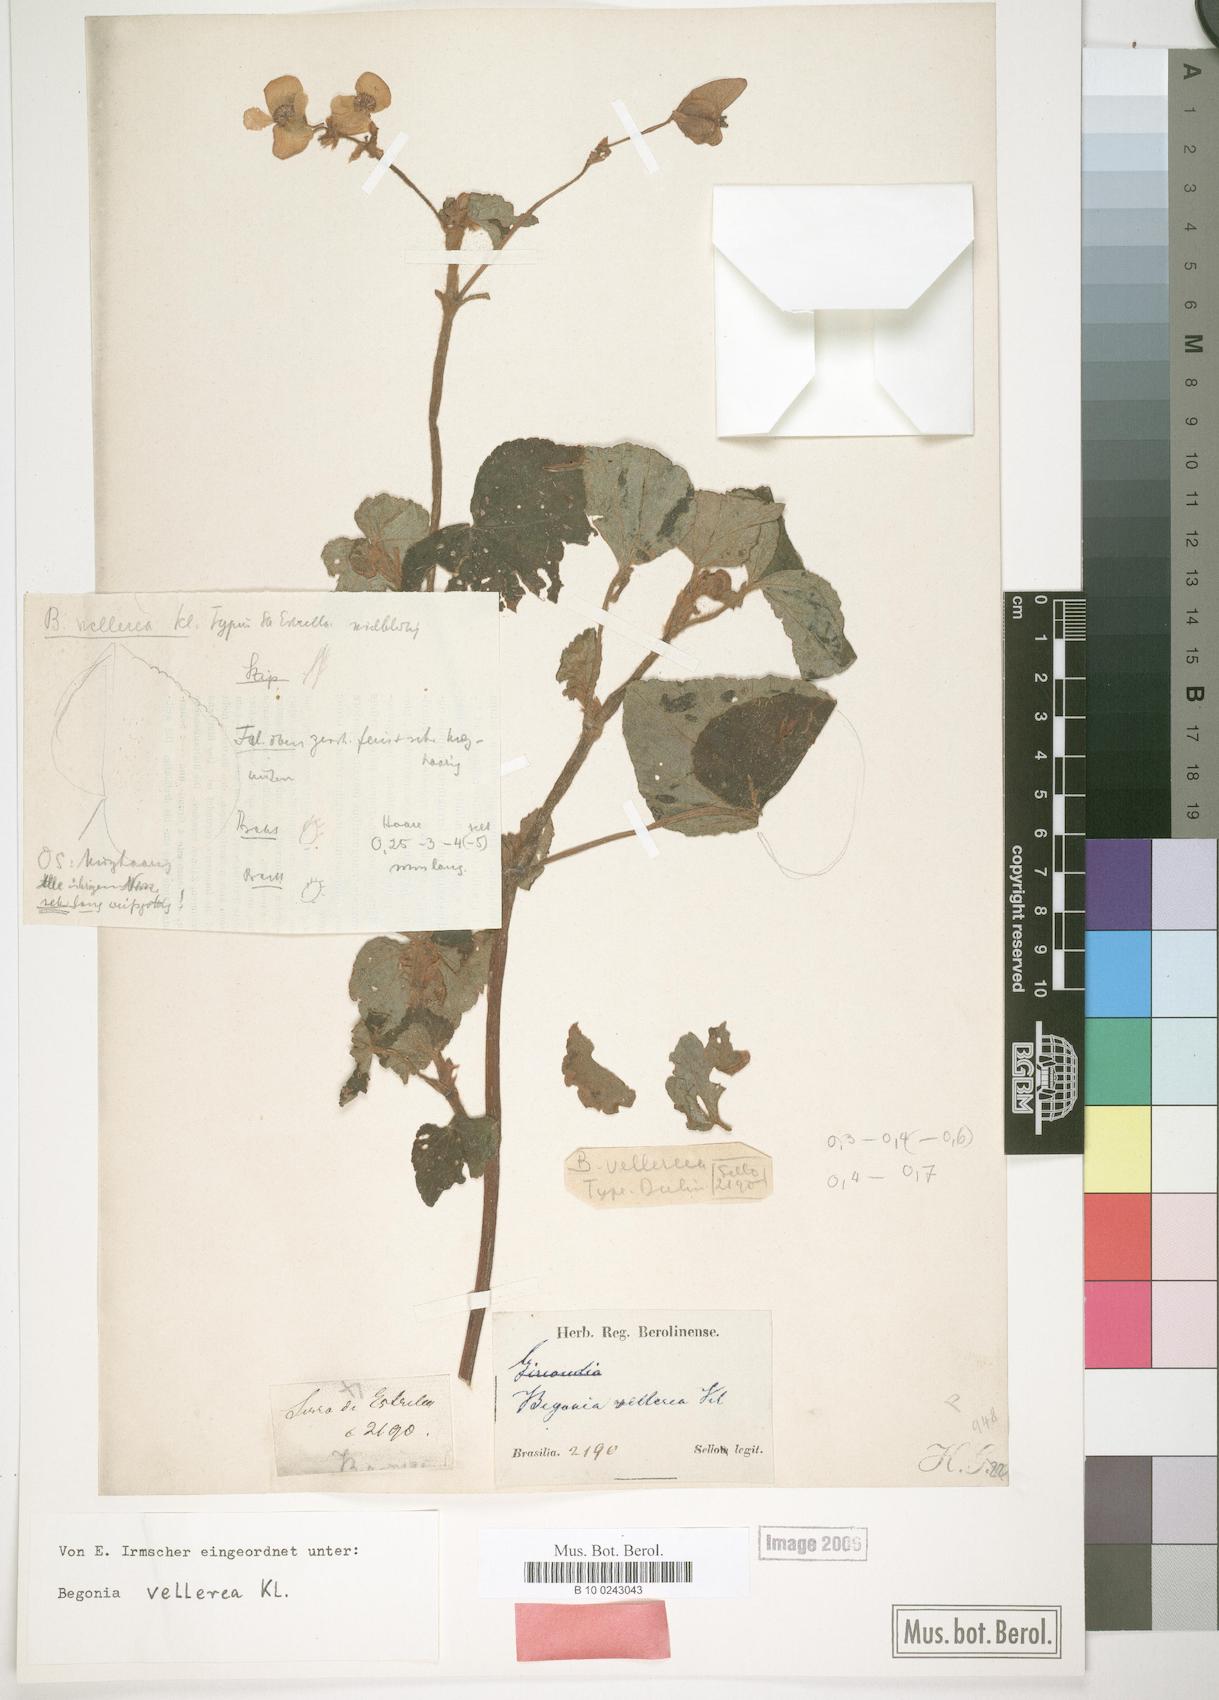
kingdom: Plantae
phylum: Tracheophyta
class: Magnoliopsida
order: Cucurbitales
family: Begoniaceae
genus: Begonia
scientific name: Begonia fischeri
